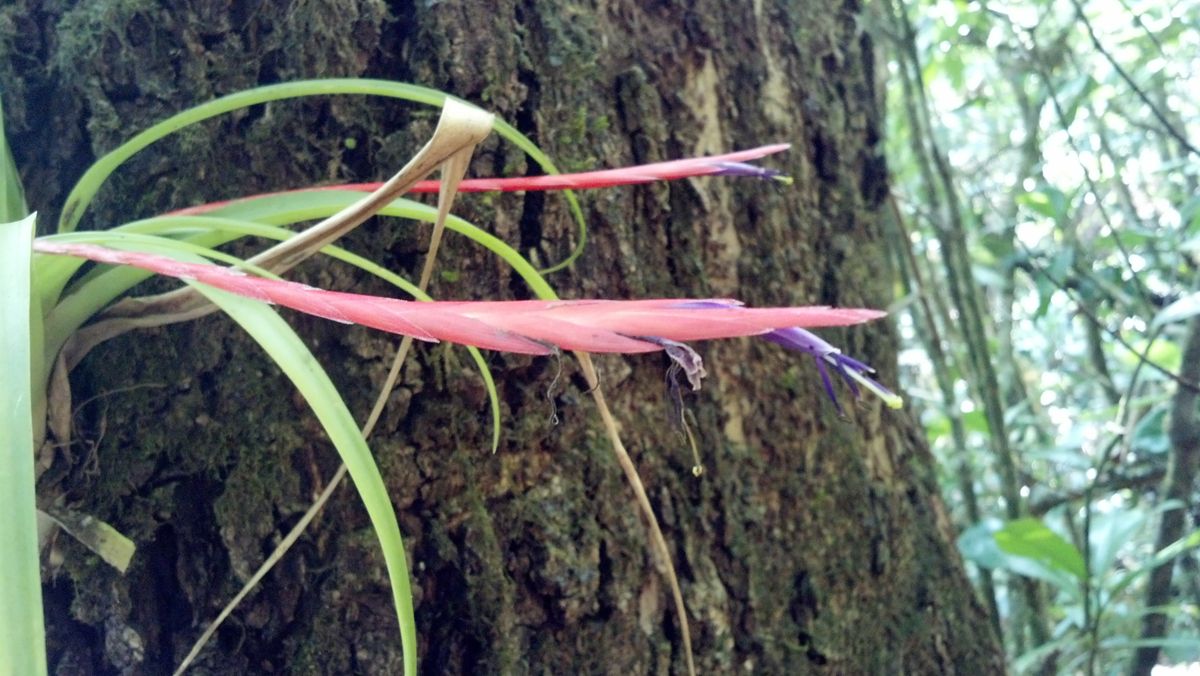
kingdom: Plantae
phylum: Tracheophyta
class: Liliopsida
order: Poales
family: Bromeliaceae
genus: Tillandsia
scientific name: Tillandsia flabellata
